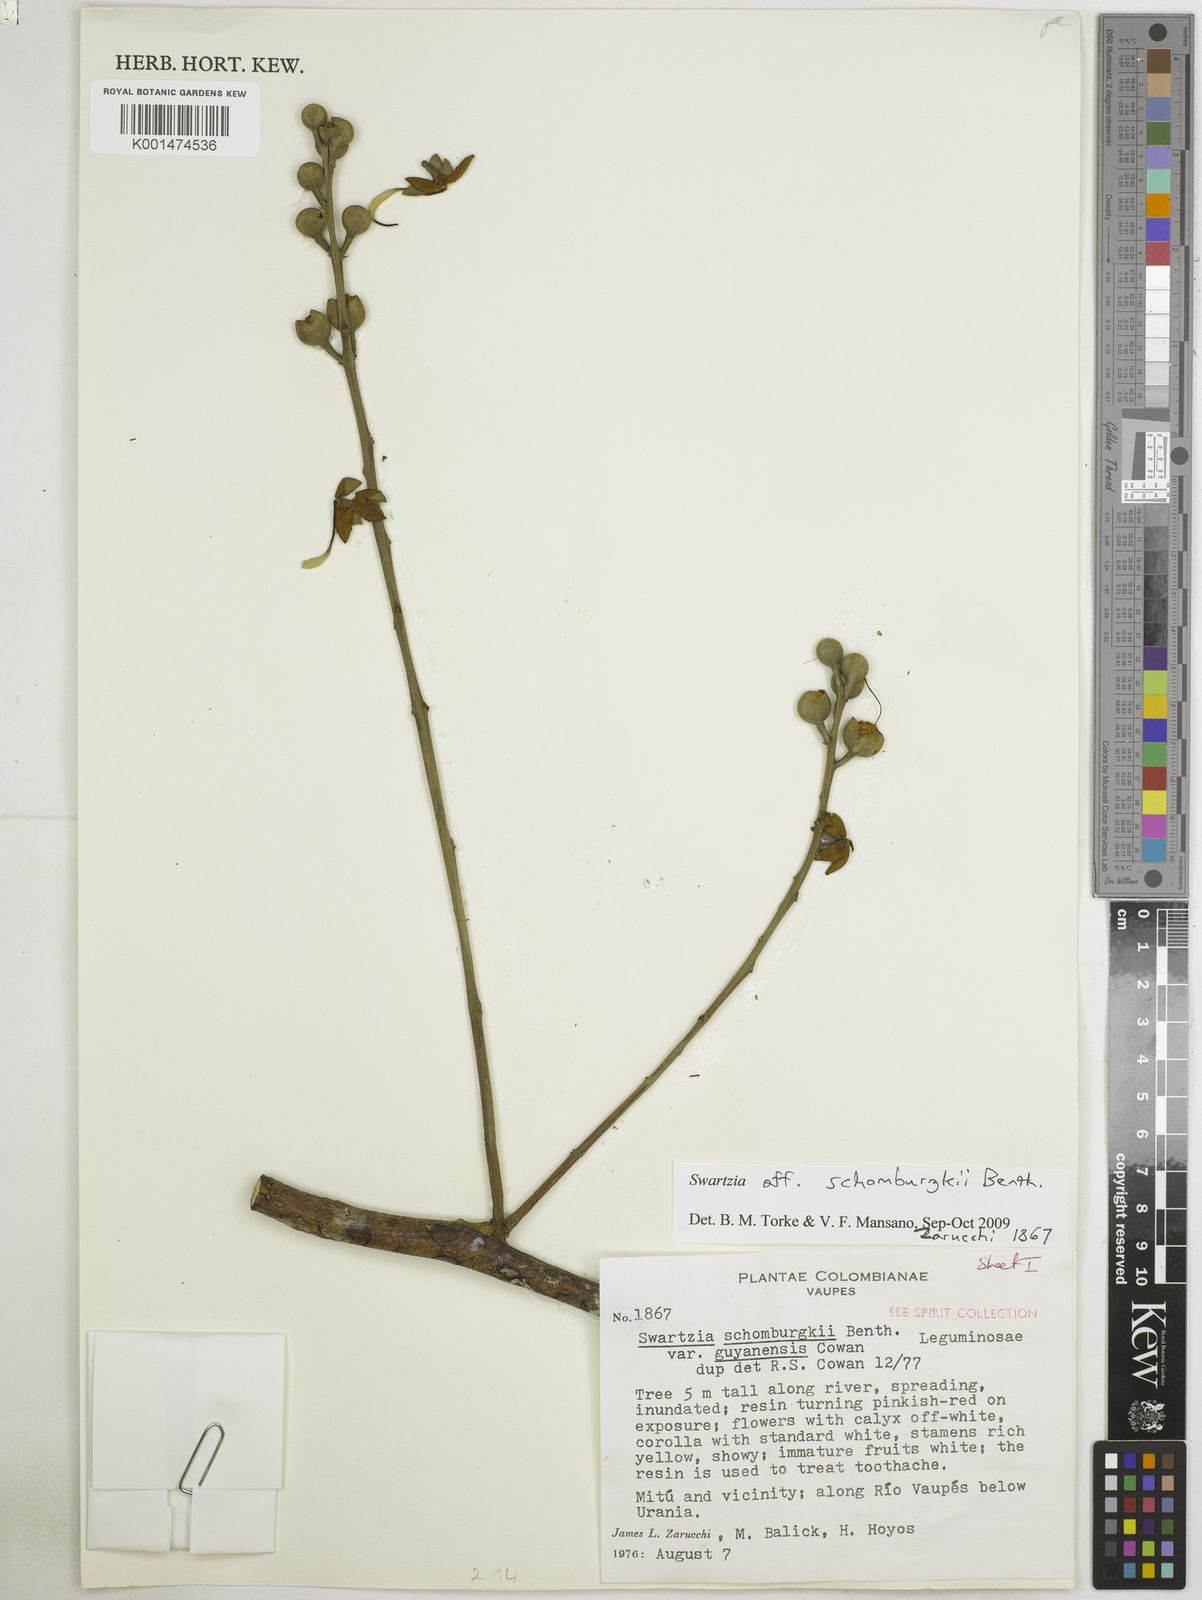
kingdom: Plantae
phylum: Tracheophyta
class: Magnoliopsida
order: Fabales
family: Fabaceae
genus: Swartzia
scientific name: Swartzia schomburgkii
